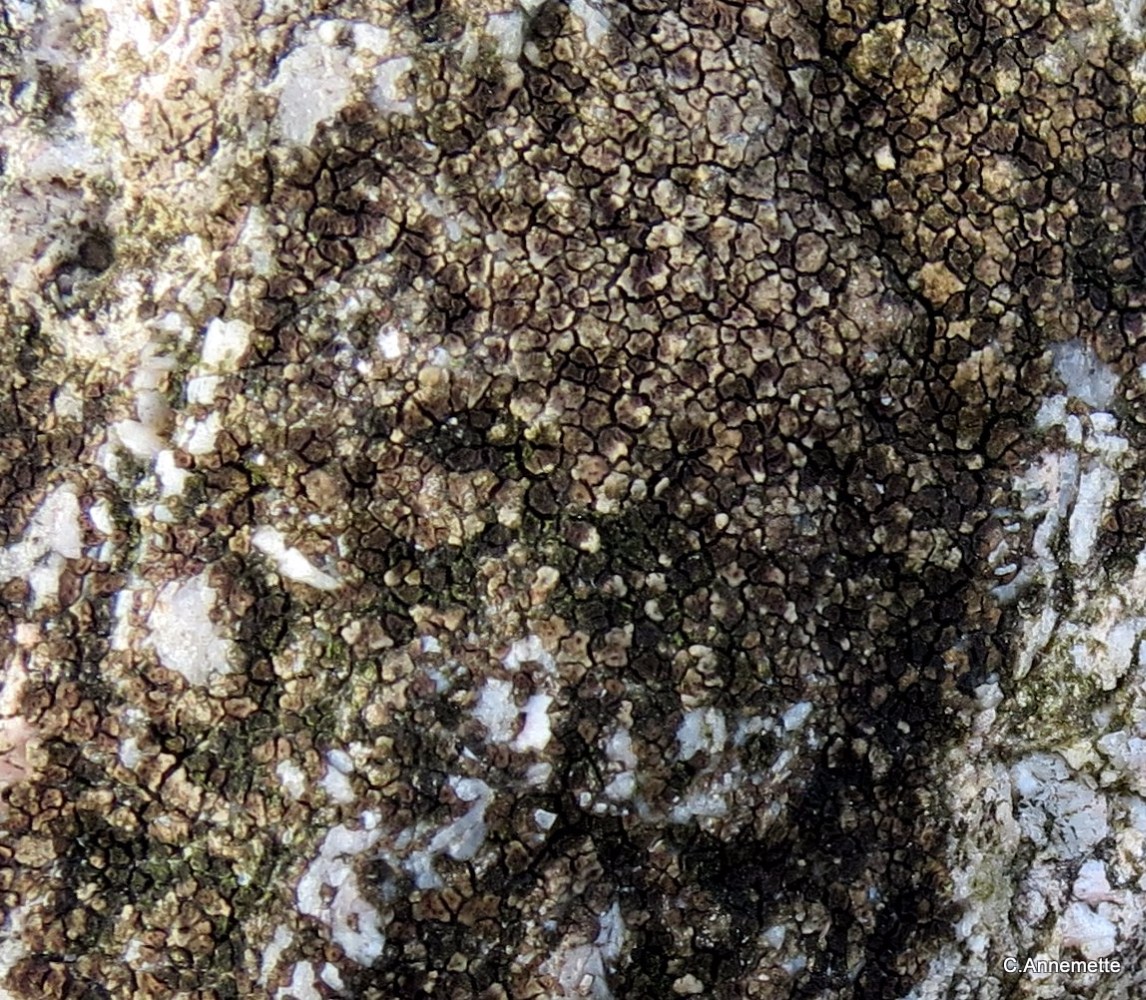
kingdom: Fungi
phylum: Ascomycota
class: Lecanoromycetes
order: Acarosporales
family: Acarosporaceae
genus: Acarospora
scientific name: Acarospora fuscata
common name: brun småsporelav
